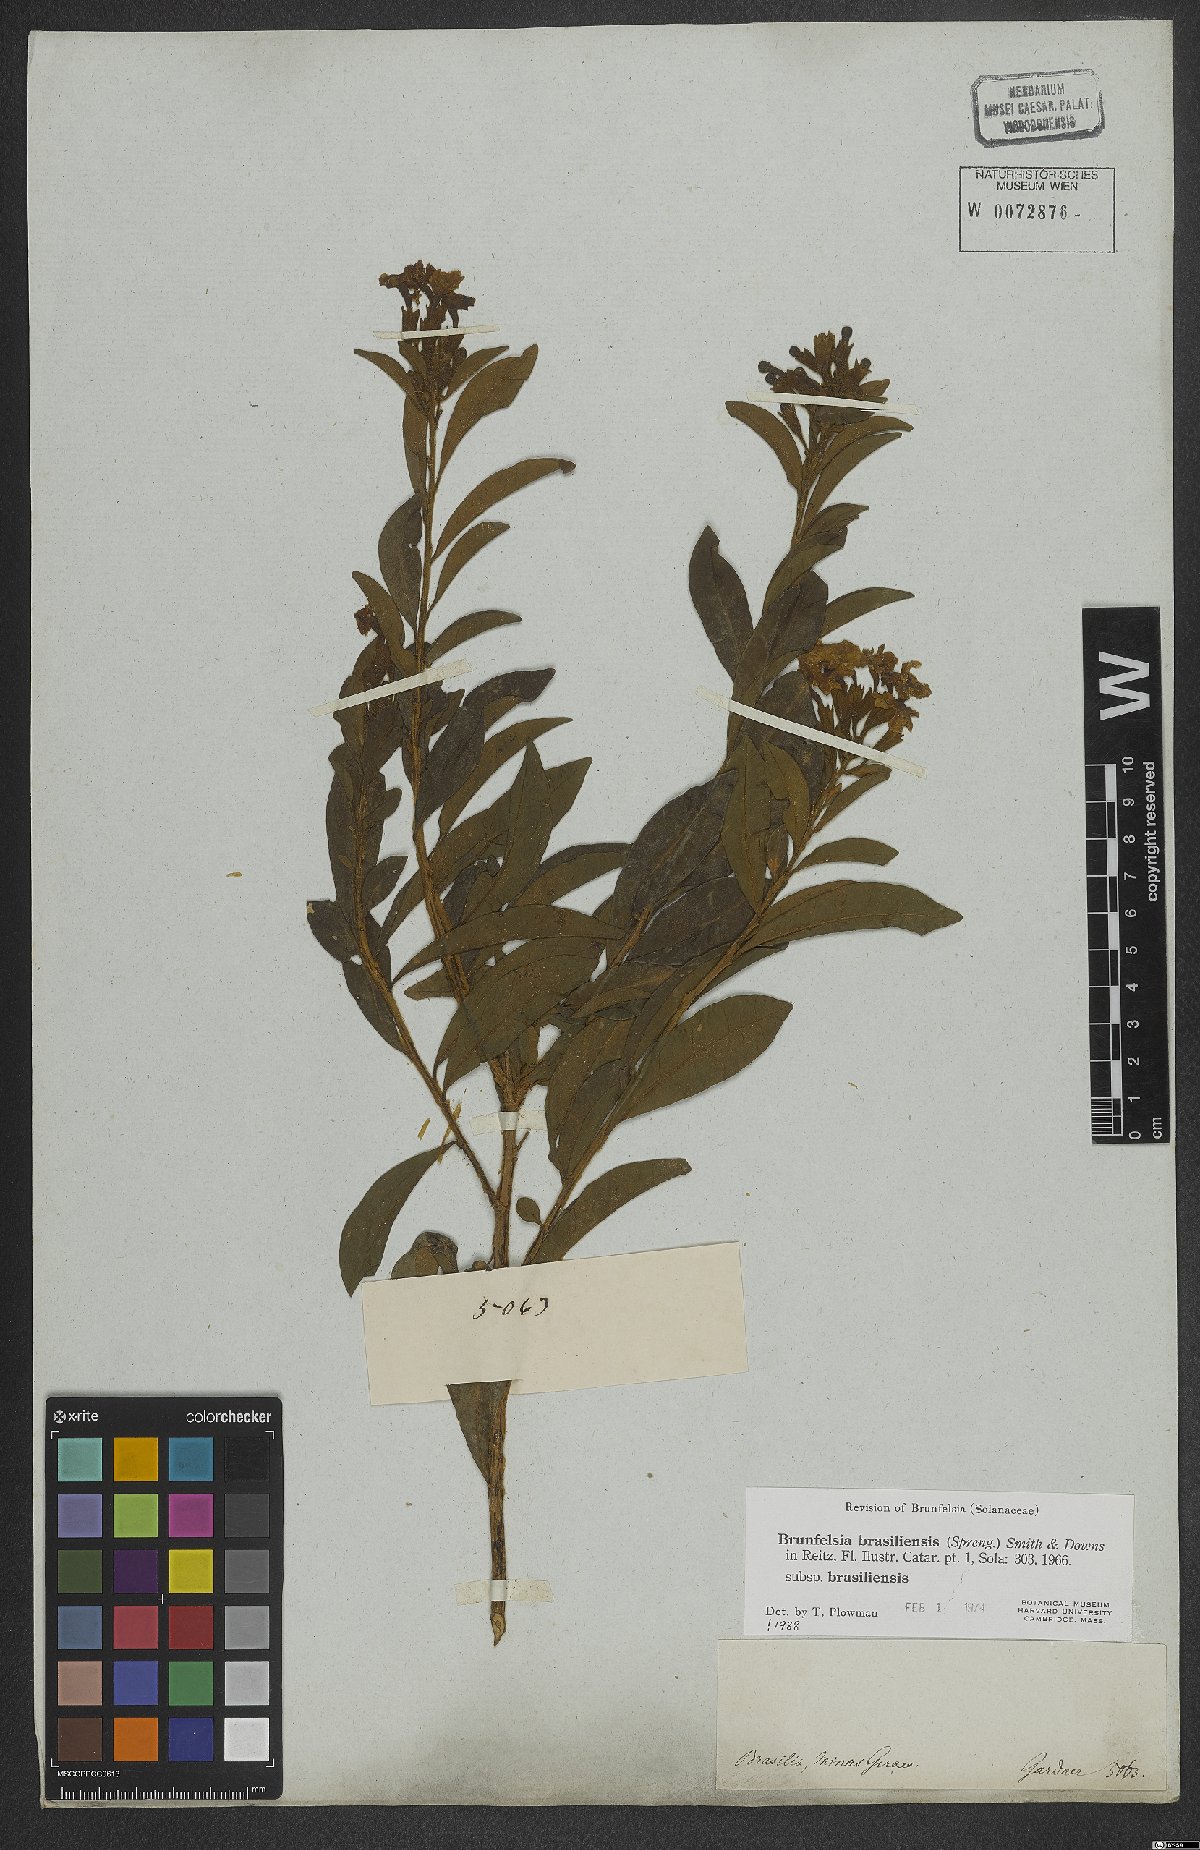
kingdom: Plantae
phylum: Tracheophyta
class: Magnoliopsida
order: Solanales
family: Solanaceae
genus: Brunfelsia
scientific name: Brunfelsia brasiliensis
